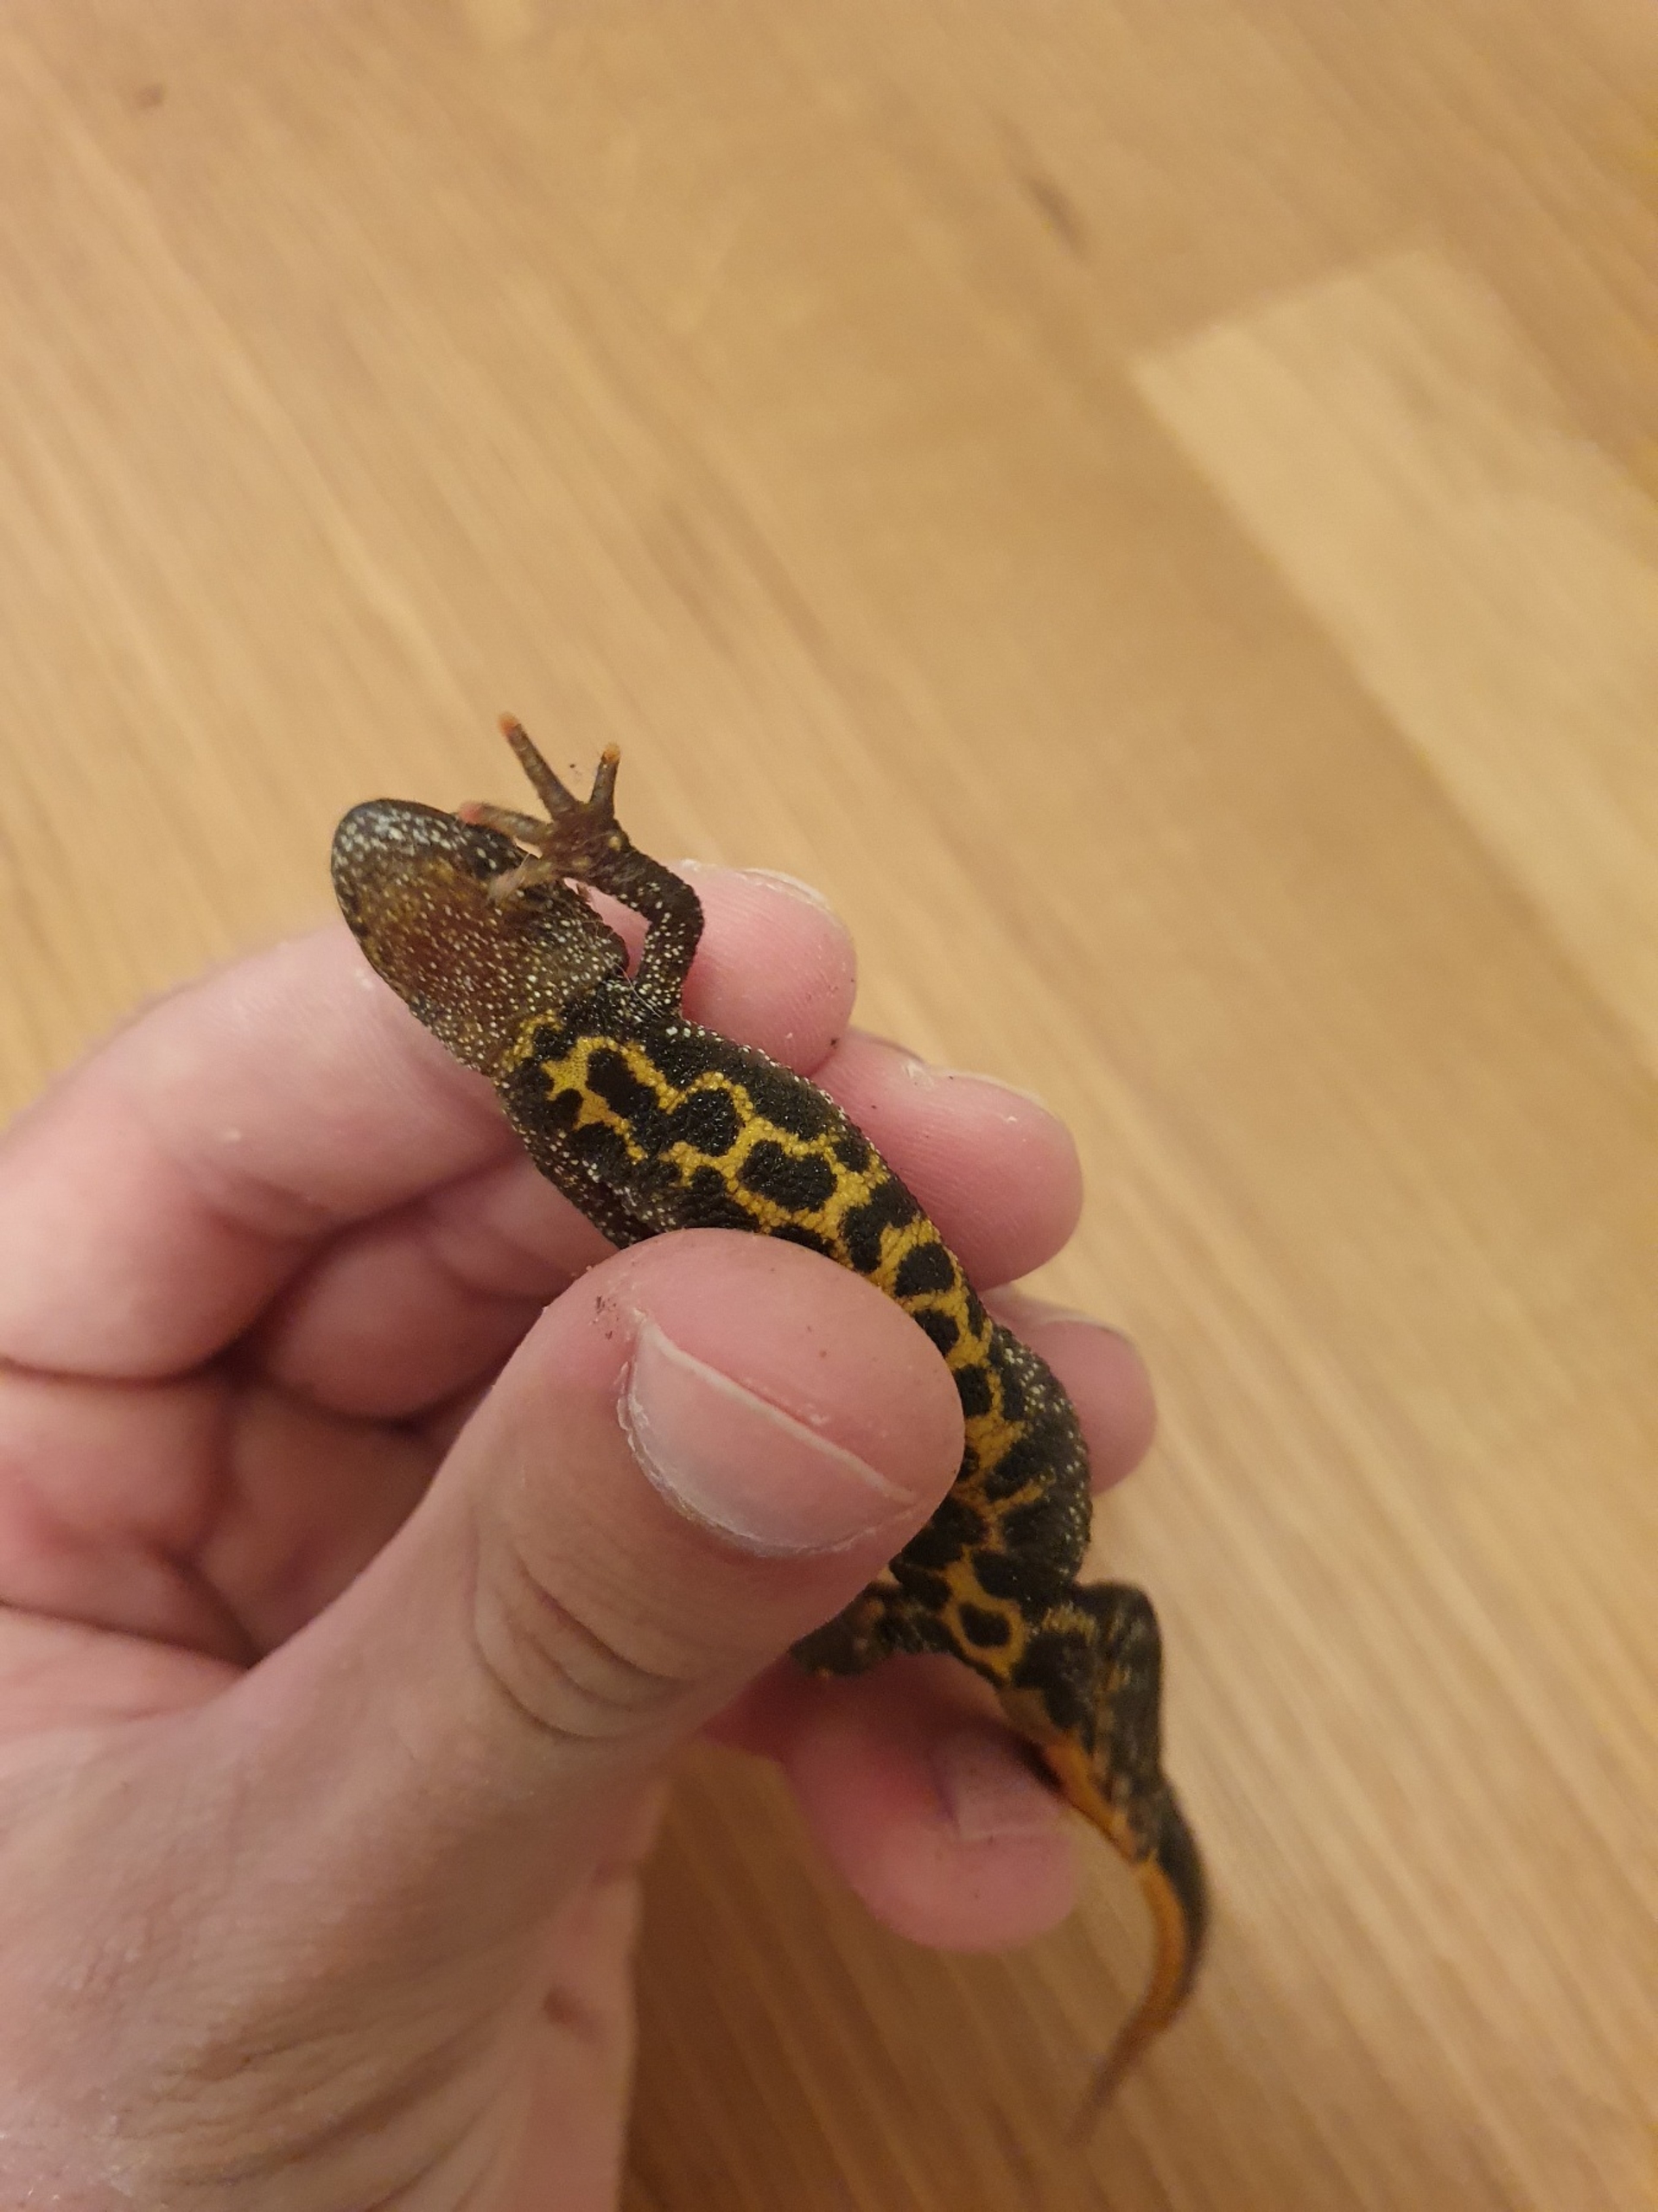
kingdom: Animalia
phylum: Chordata
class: Amphibia
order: Caudata
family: Salamandridae
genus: Triturus
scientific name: Triturus cristatus
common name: Stor vandsalamander
